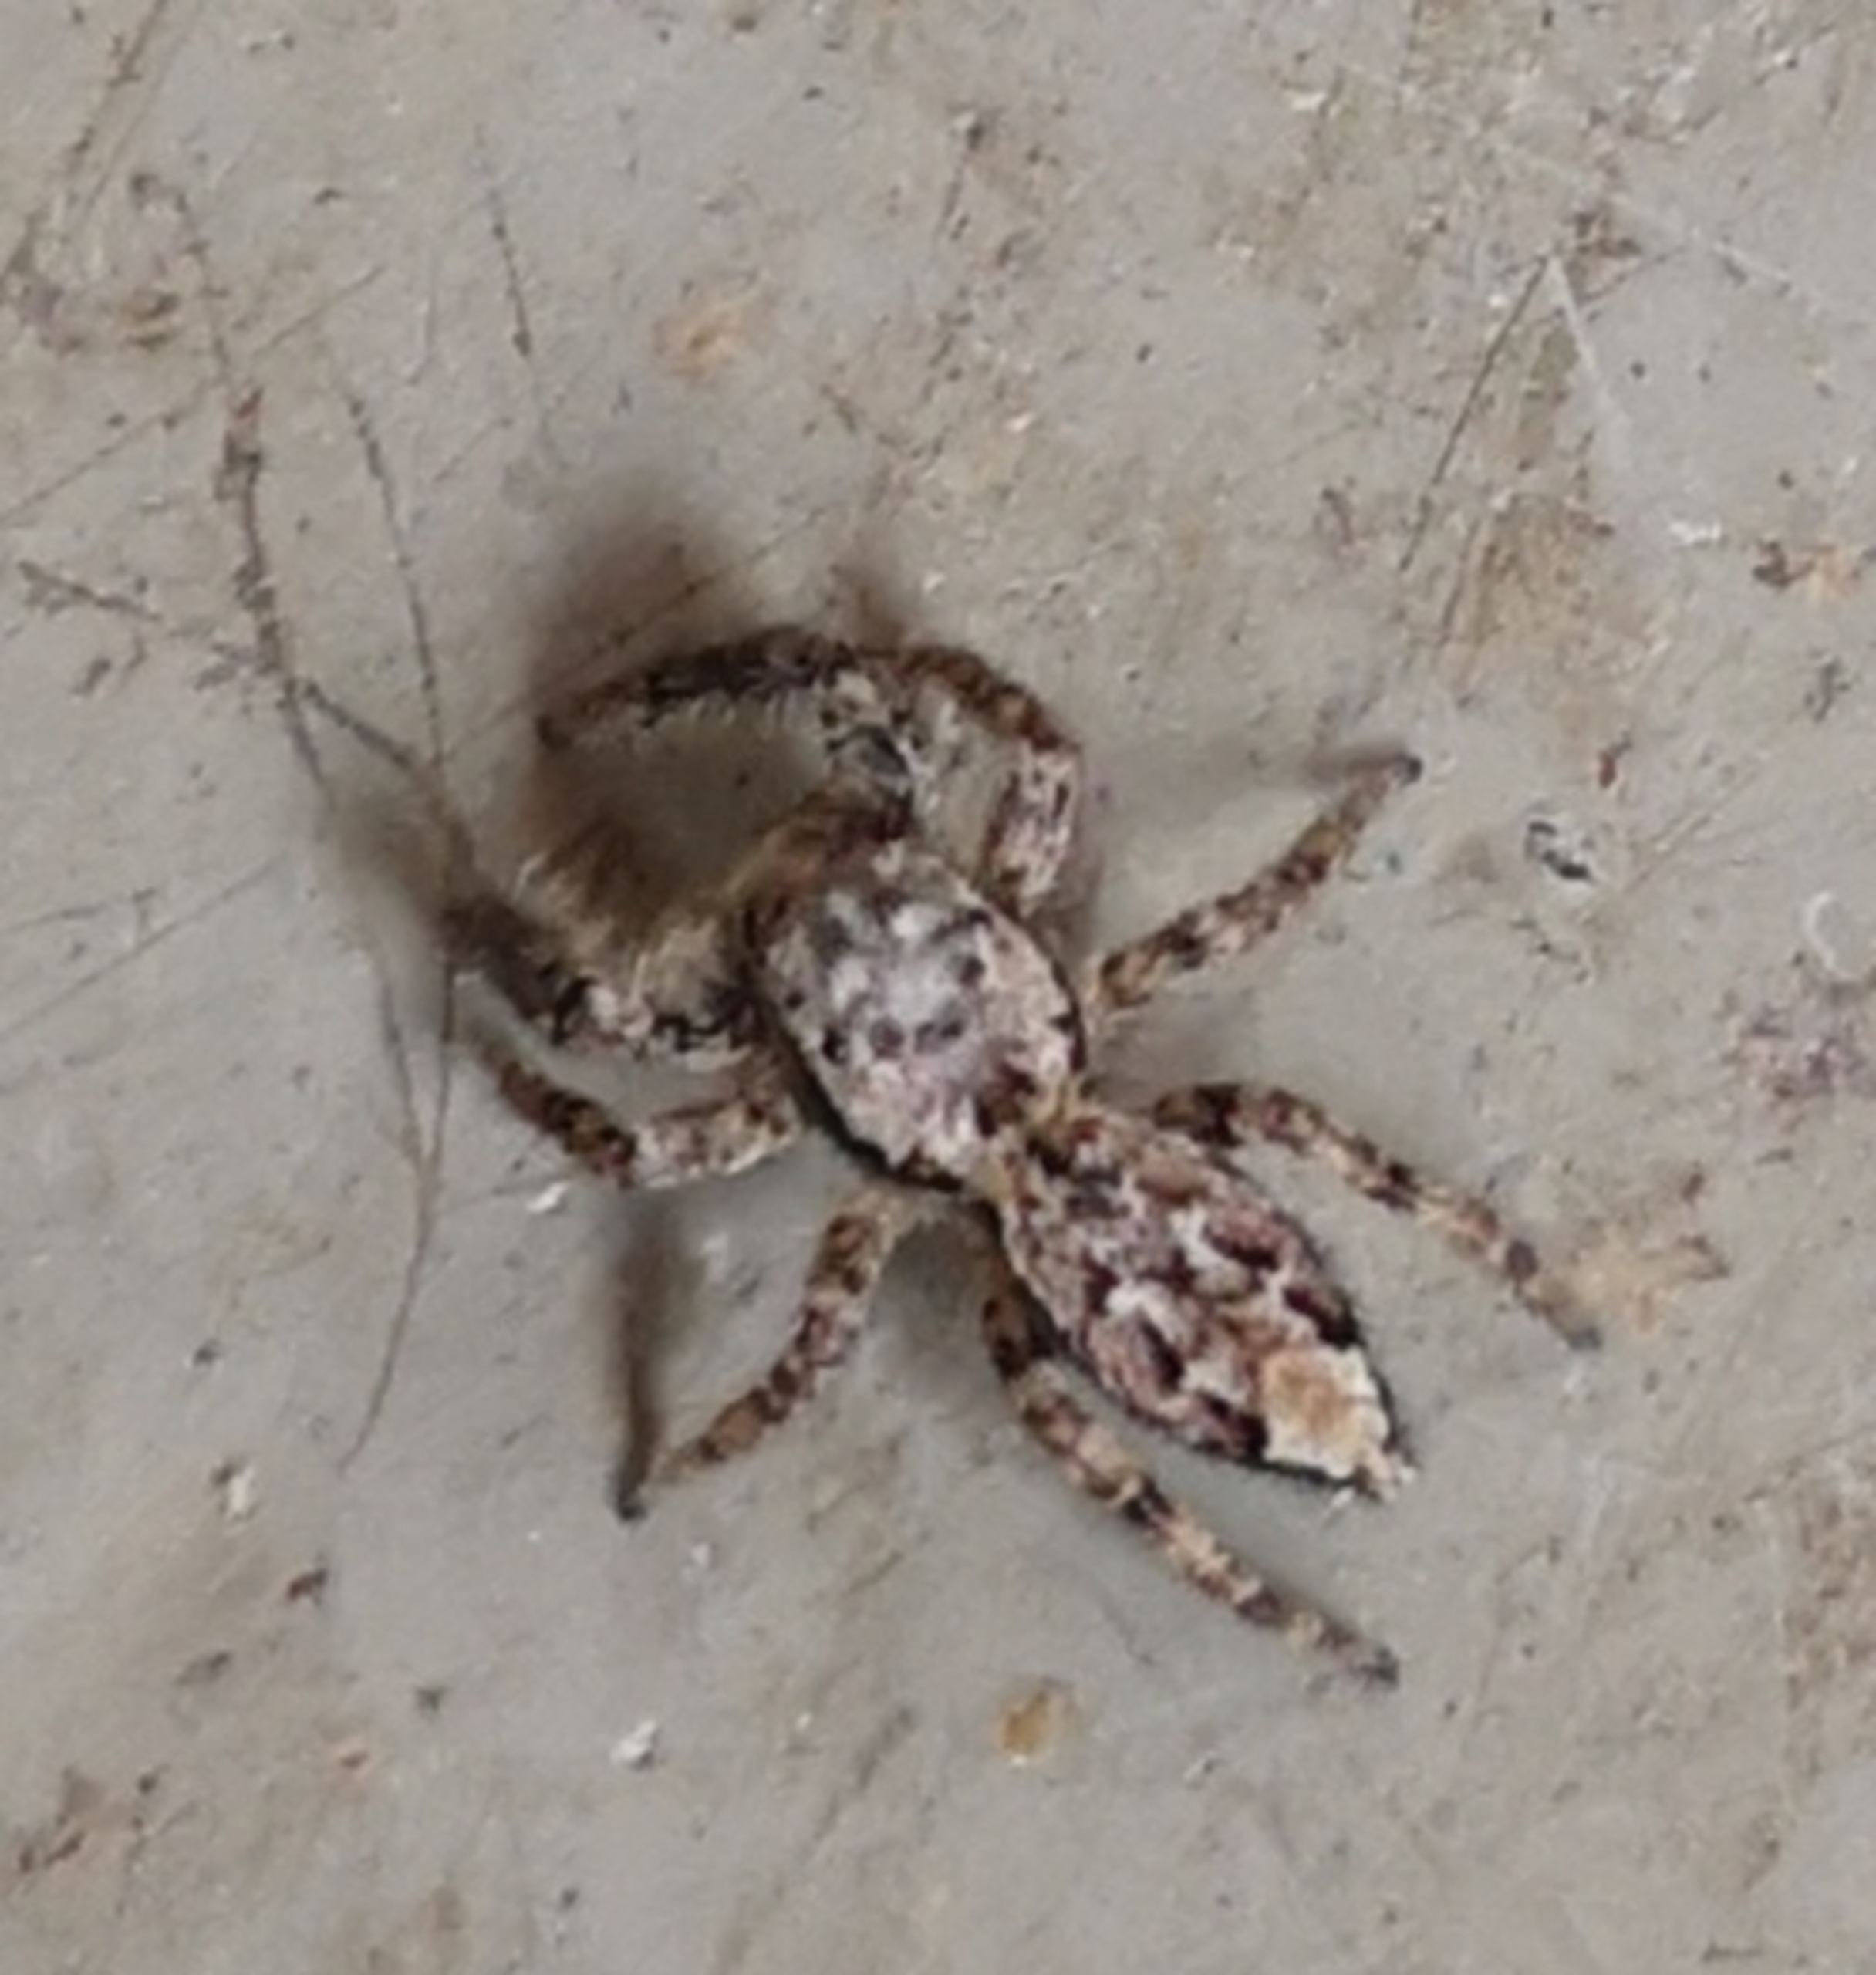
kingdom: Animalia
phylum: Arthropoda
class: Arachnida
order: Araneae
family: Salticidae
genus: Marpissa
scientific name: Marpissa muscosa
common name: Stor springedderkop
